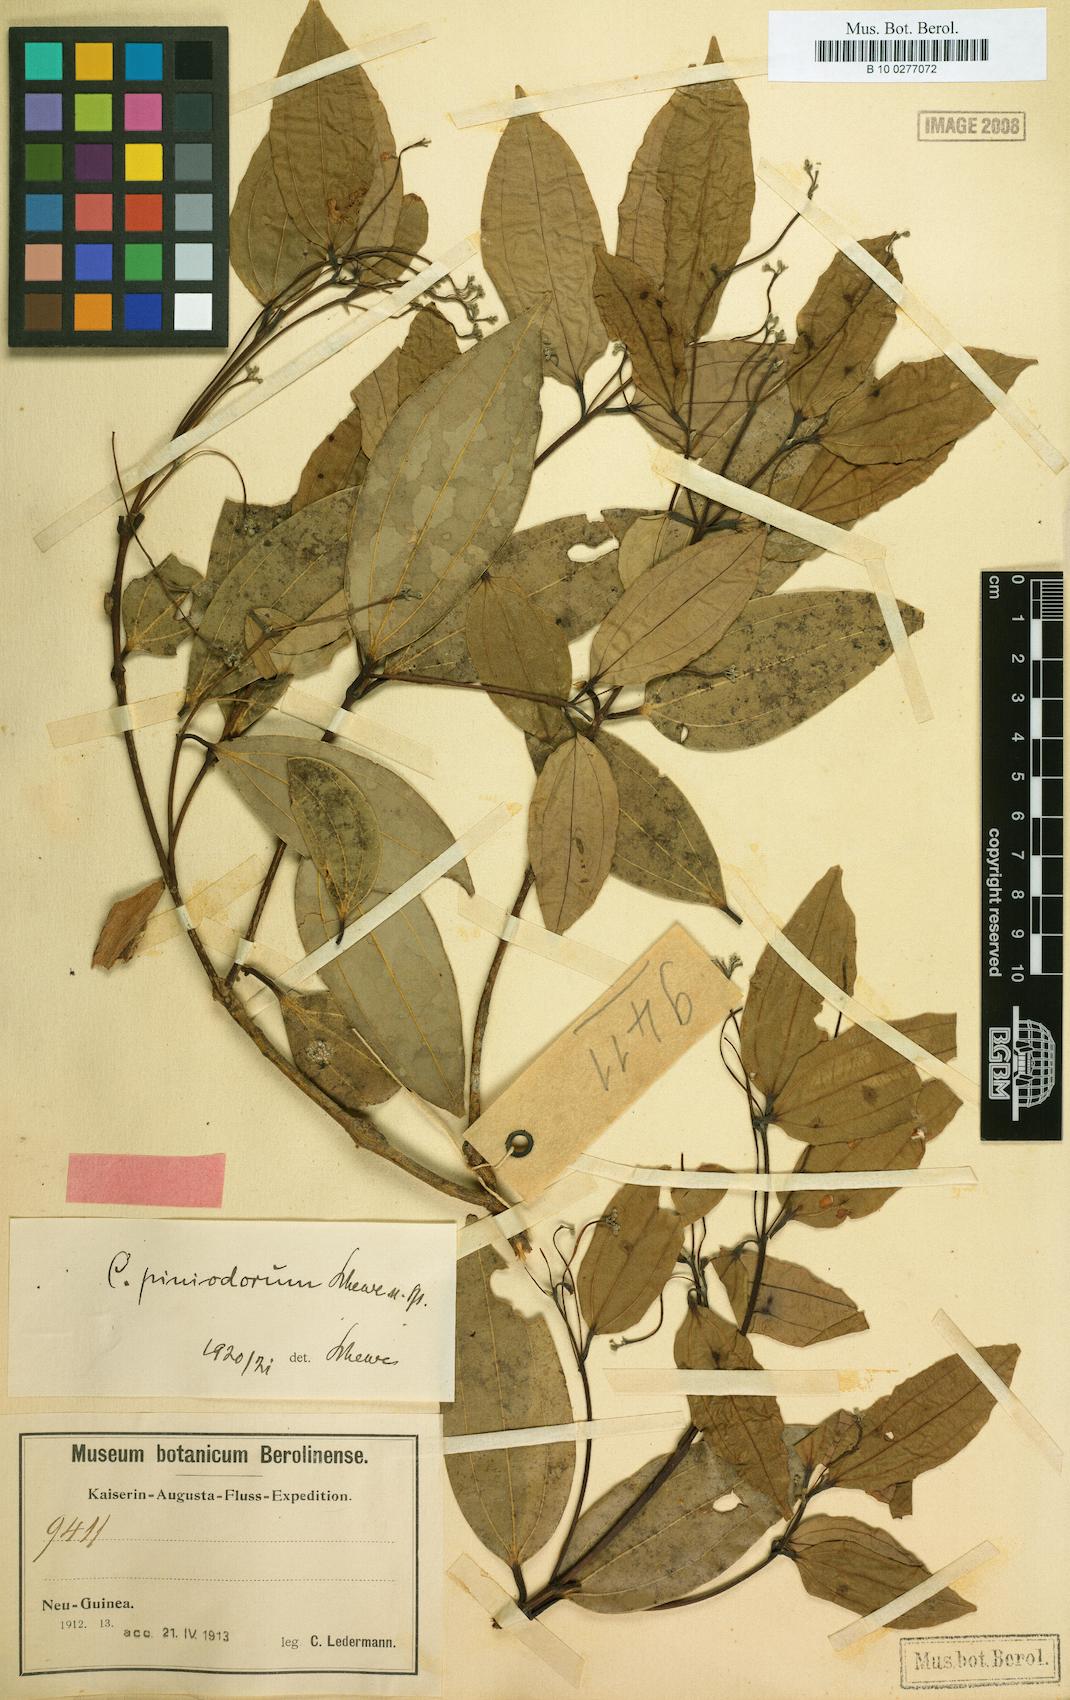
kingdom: Plantae
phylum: Tracheophyta
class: Magnoliopsida
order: Laurales
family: Lauraceae
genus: Cinnamomum
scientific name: Cinnamomum piniodorum
